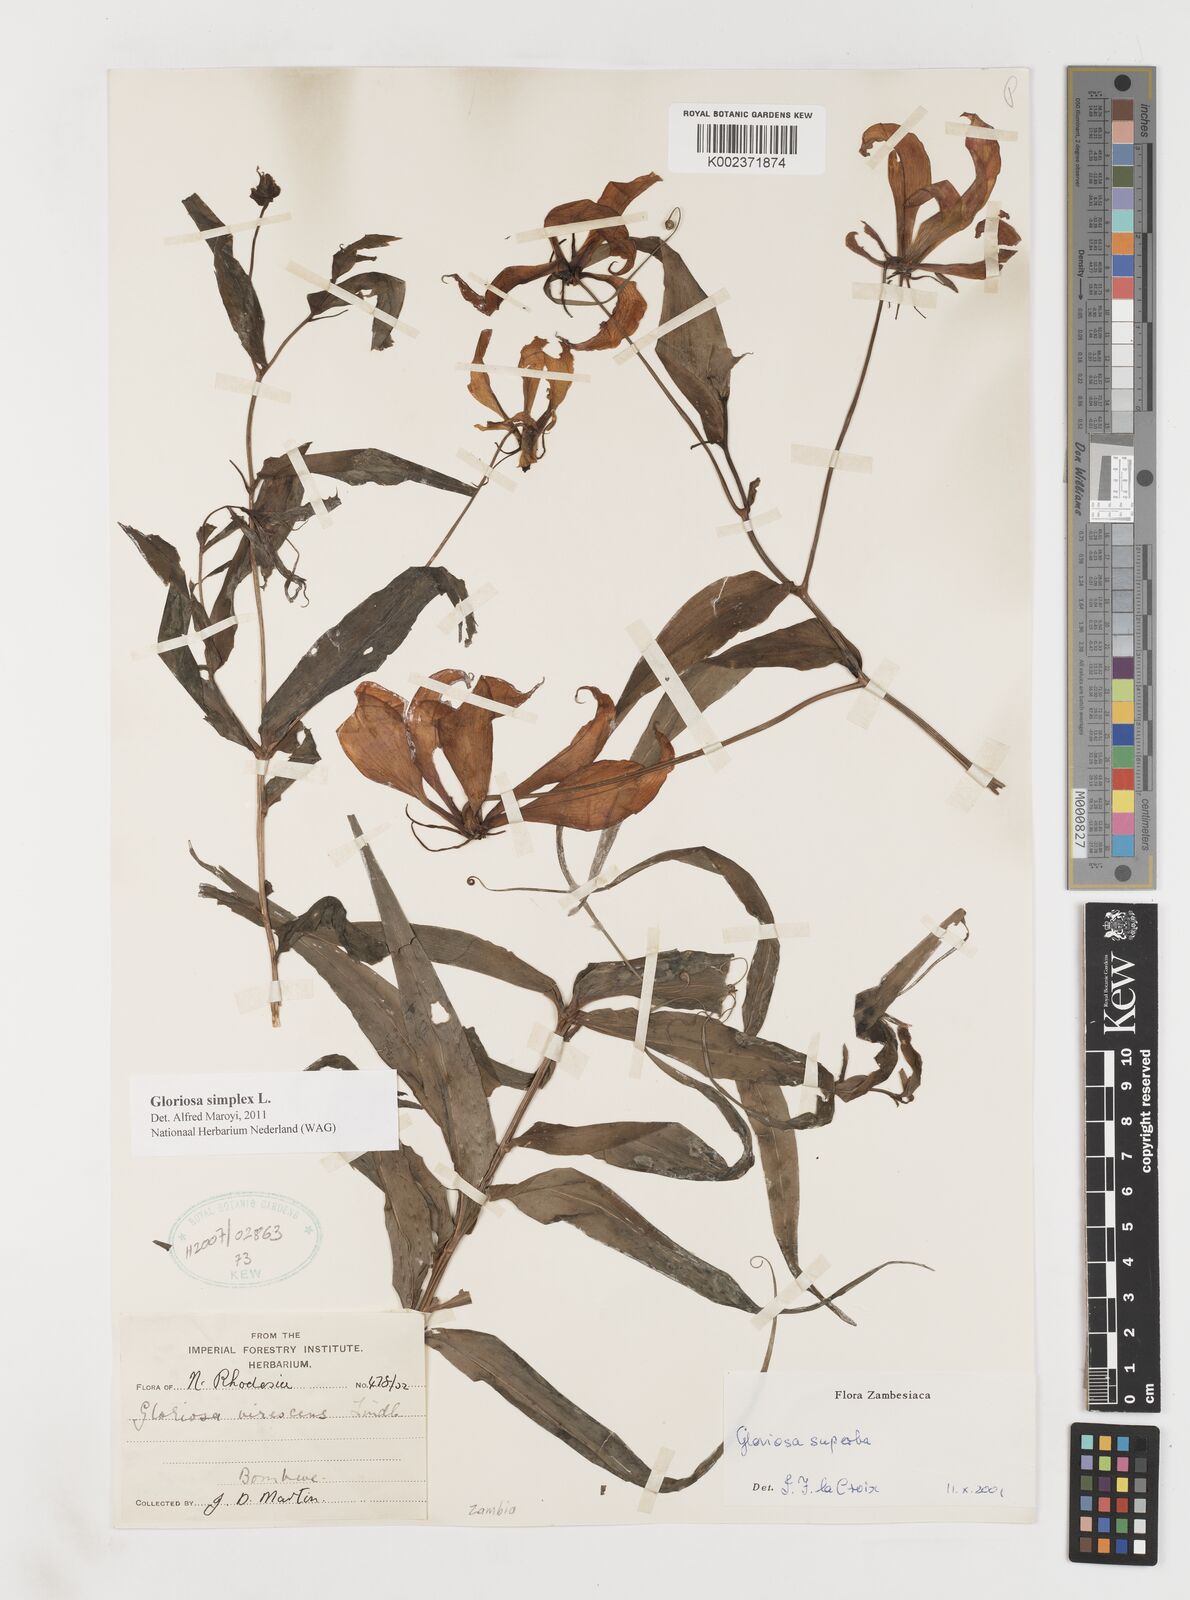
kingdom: Plantae
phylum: Tracheophyta
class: Liliopsida
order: Liliales
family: Colchicaceae
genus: Gloriosa
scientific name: Gloriosa simplex
